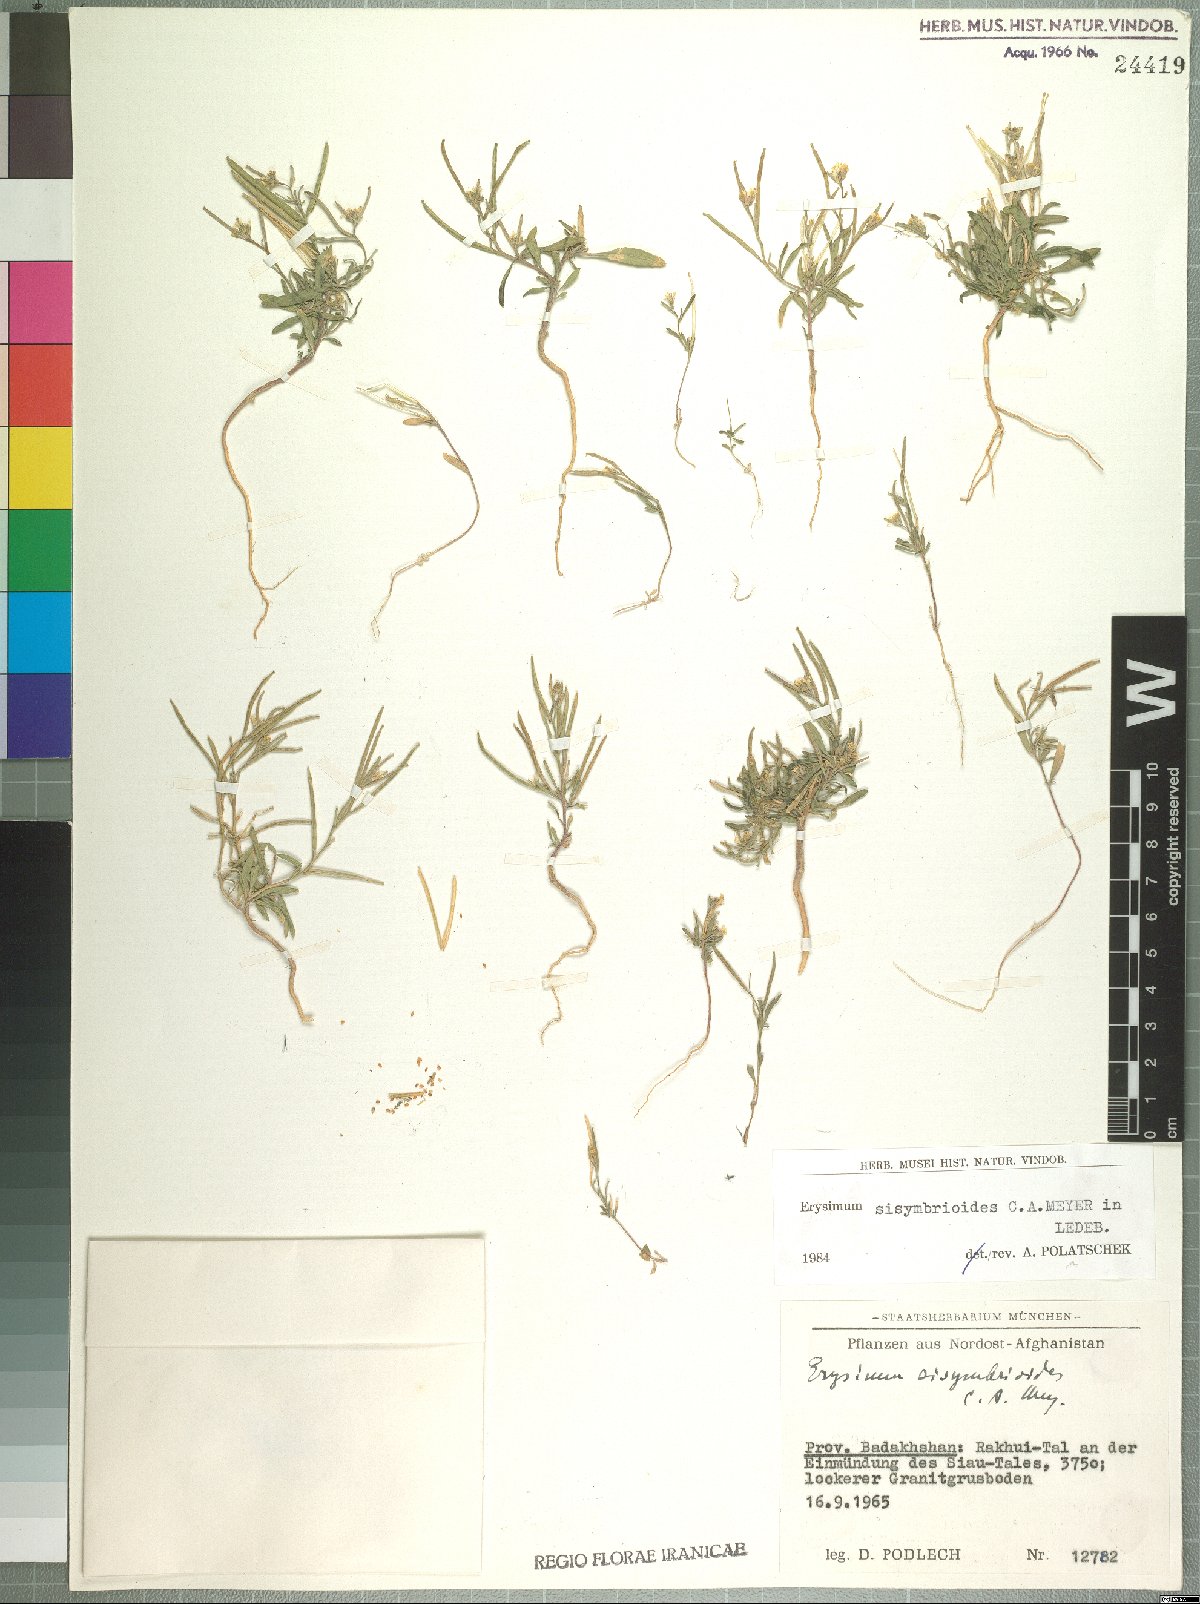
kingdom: Plantae
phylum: Tracheophyta
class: Magnoliopsida
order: Brassicales
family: Brassicaceae
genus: Erysimum
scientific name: Erysimum sisymbrioides
